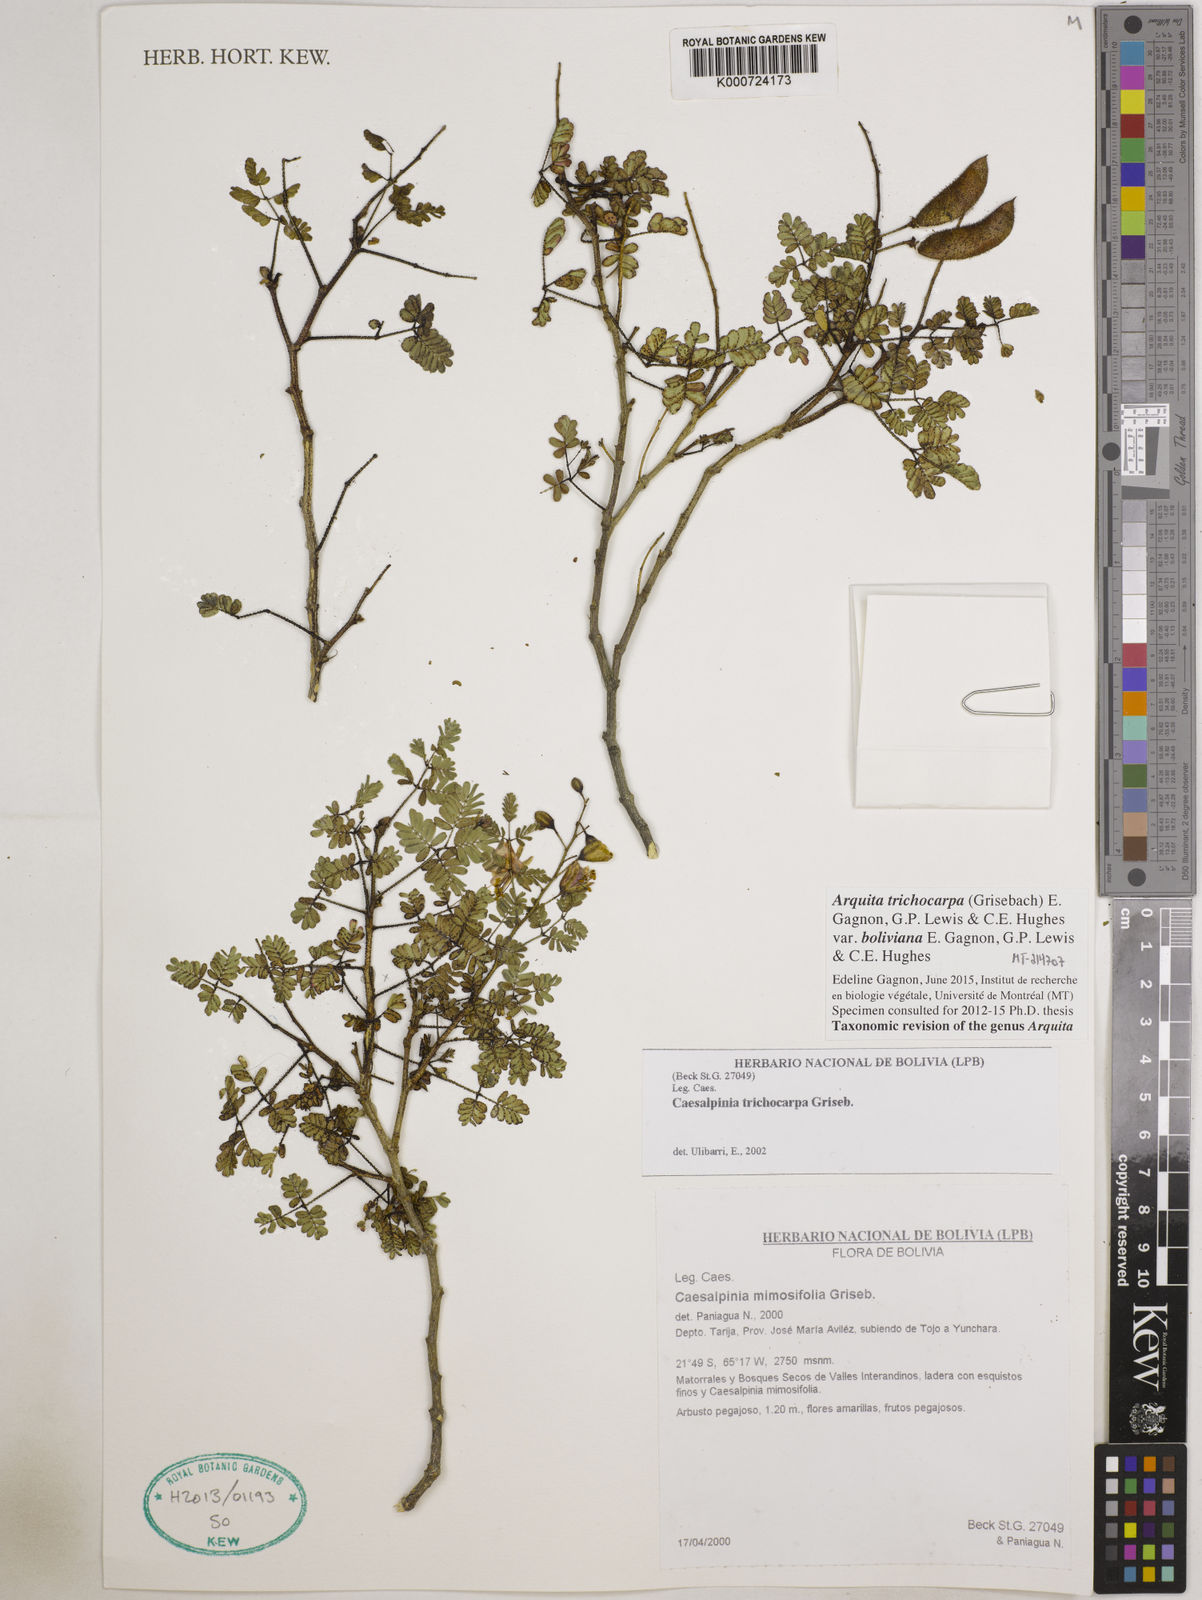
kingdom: Plantae
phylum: Tracheophyta
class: Magnoliopsida
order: Fabales
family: Fabaceae
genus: Arquita
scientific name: Arquita trichocarpa
